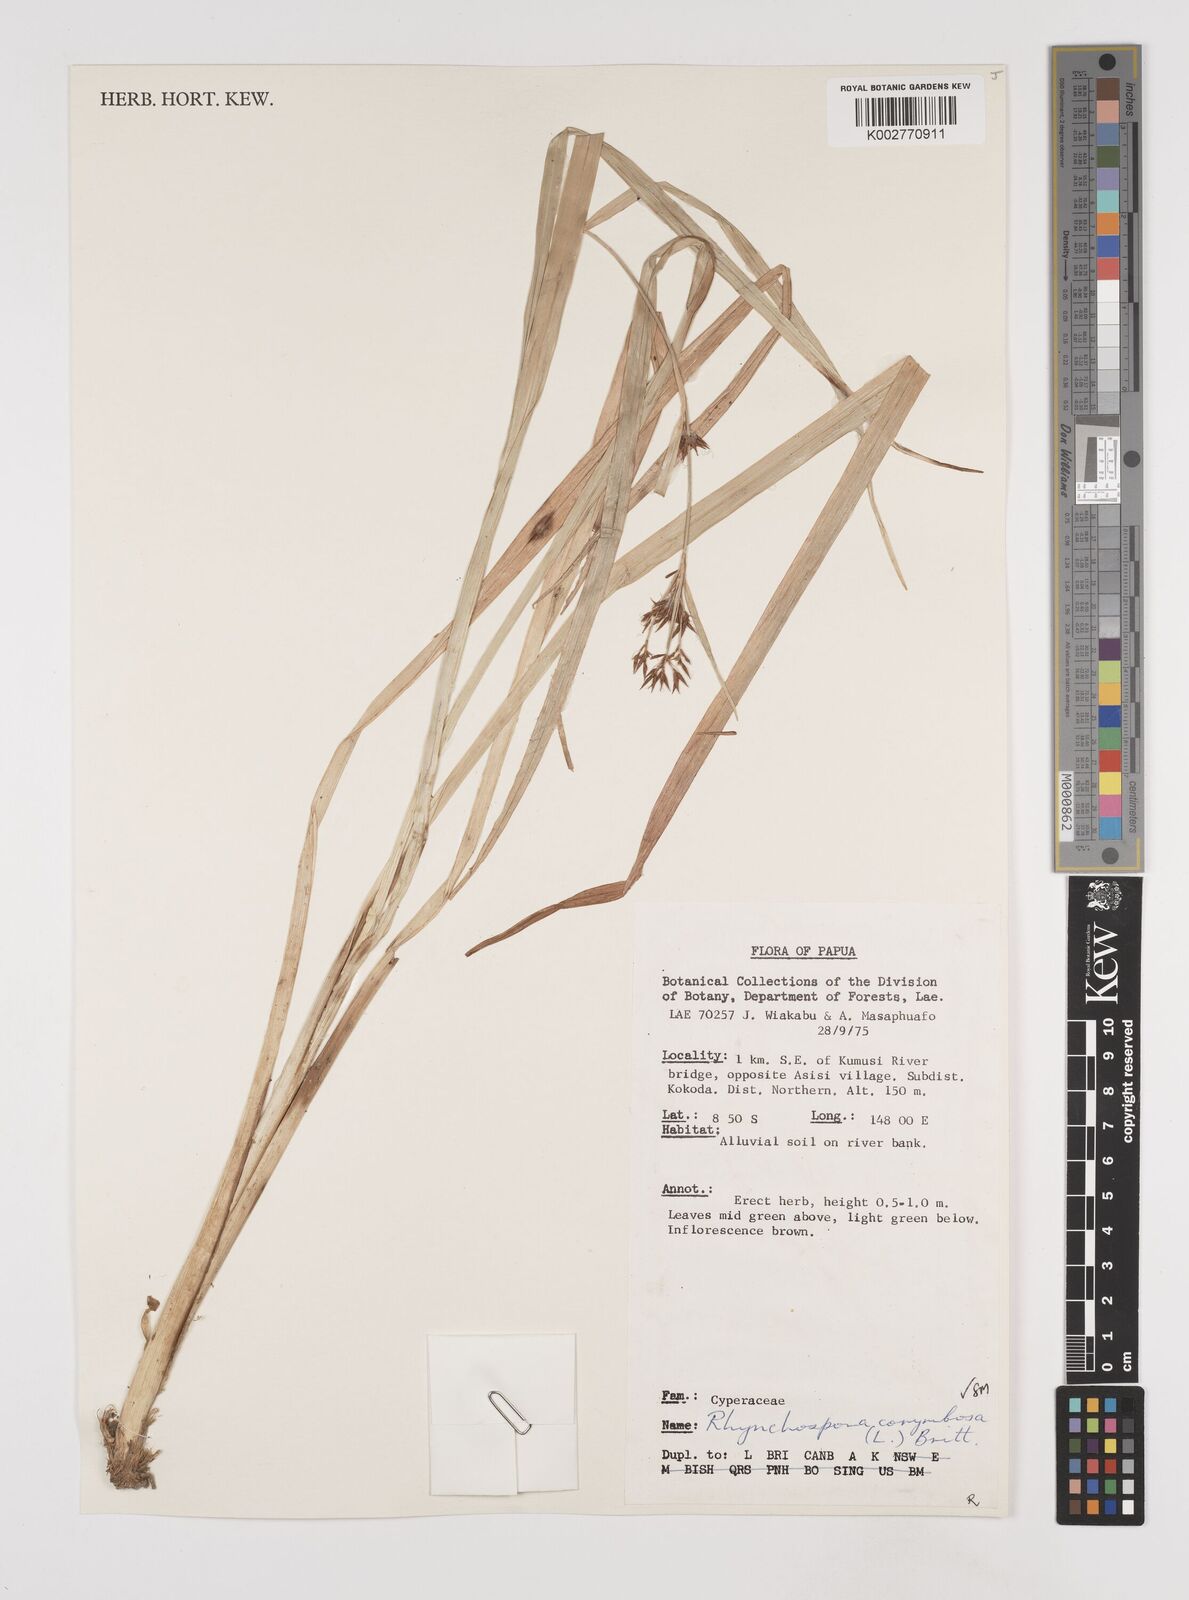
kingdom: Plantae
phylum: Tracheophyta
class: Liliopsida
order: Poales
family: Cyperaceae
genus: Rhynchospora
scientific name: Rhynchospora corymbosa
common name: Golden beak sedge
